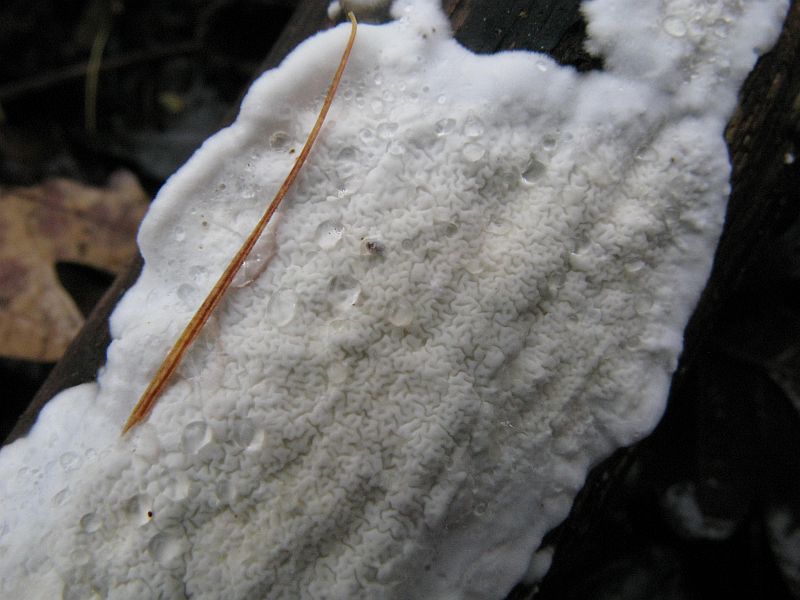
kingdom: Fungi
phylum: Basidiomycota
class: Agaricomycetes
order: Polyporales
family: Irpicaceae
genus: Byssomerulius
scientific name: Byssomerulius corium
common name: læder-åresvamp
